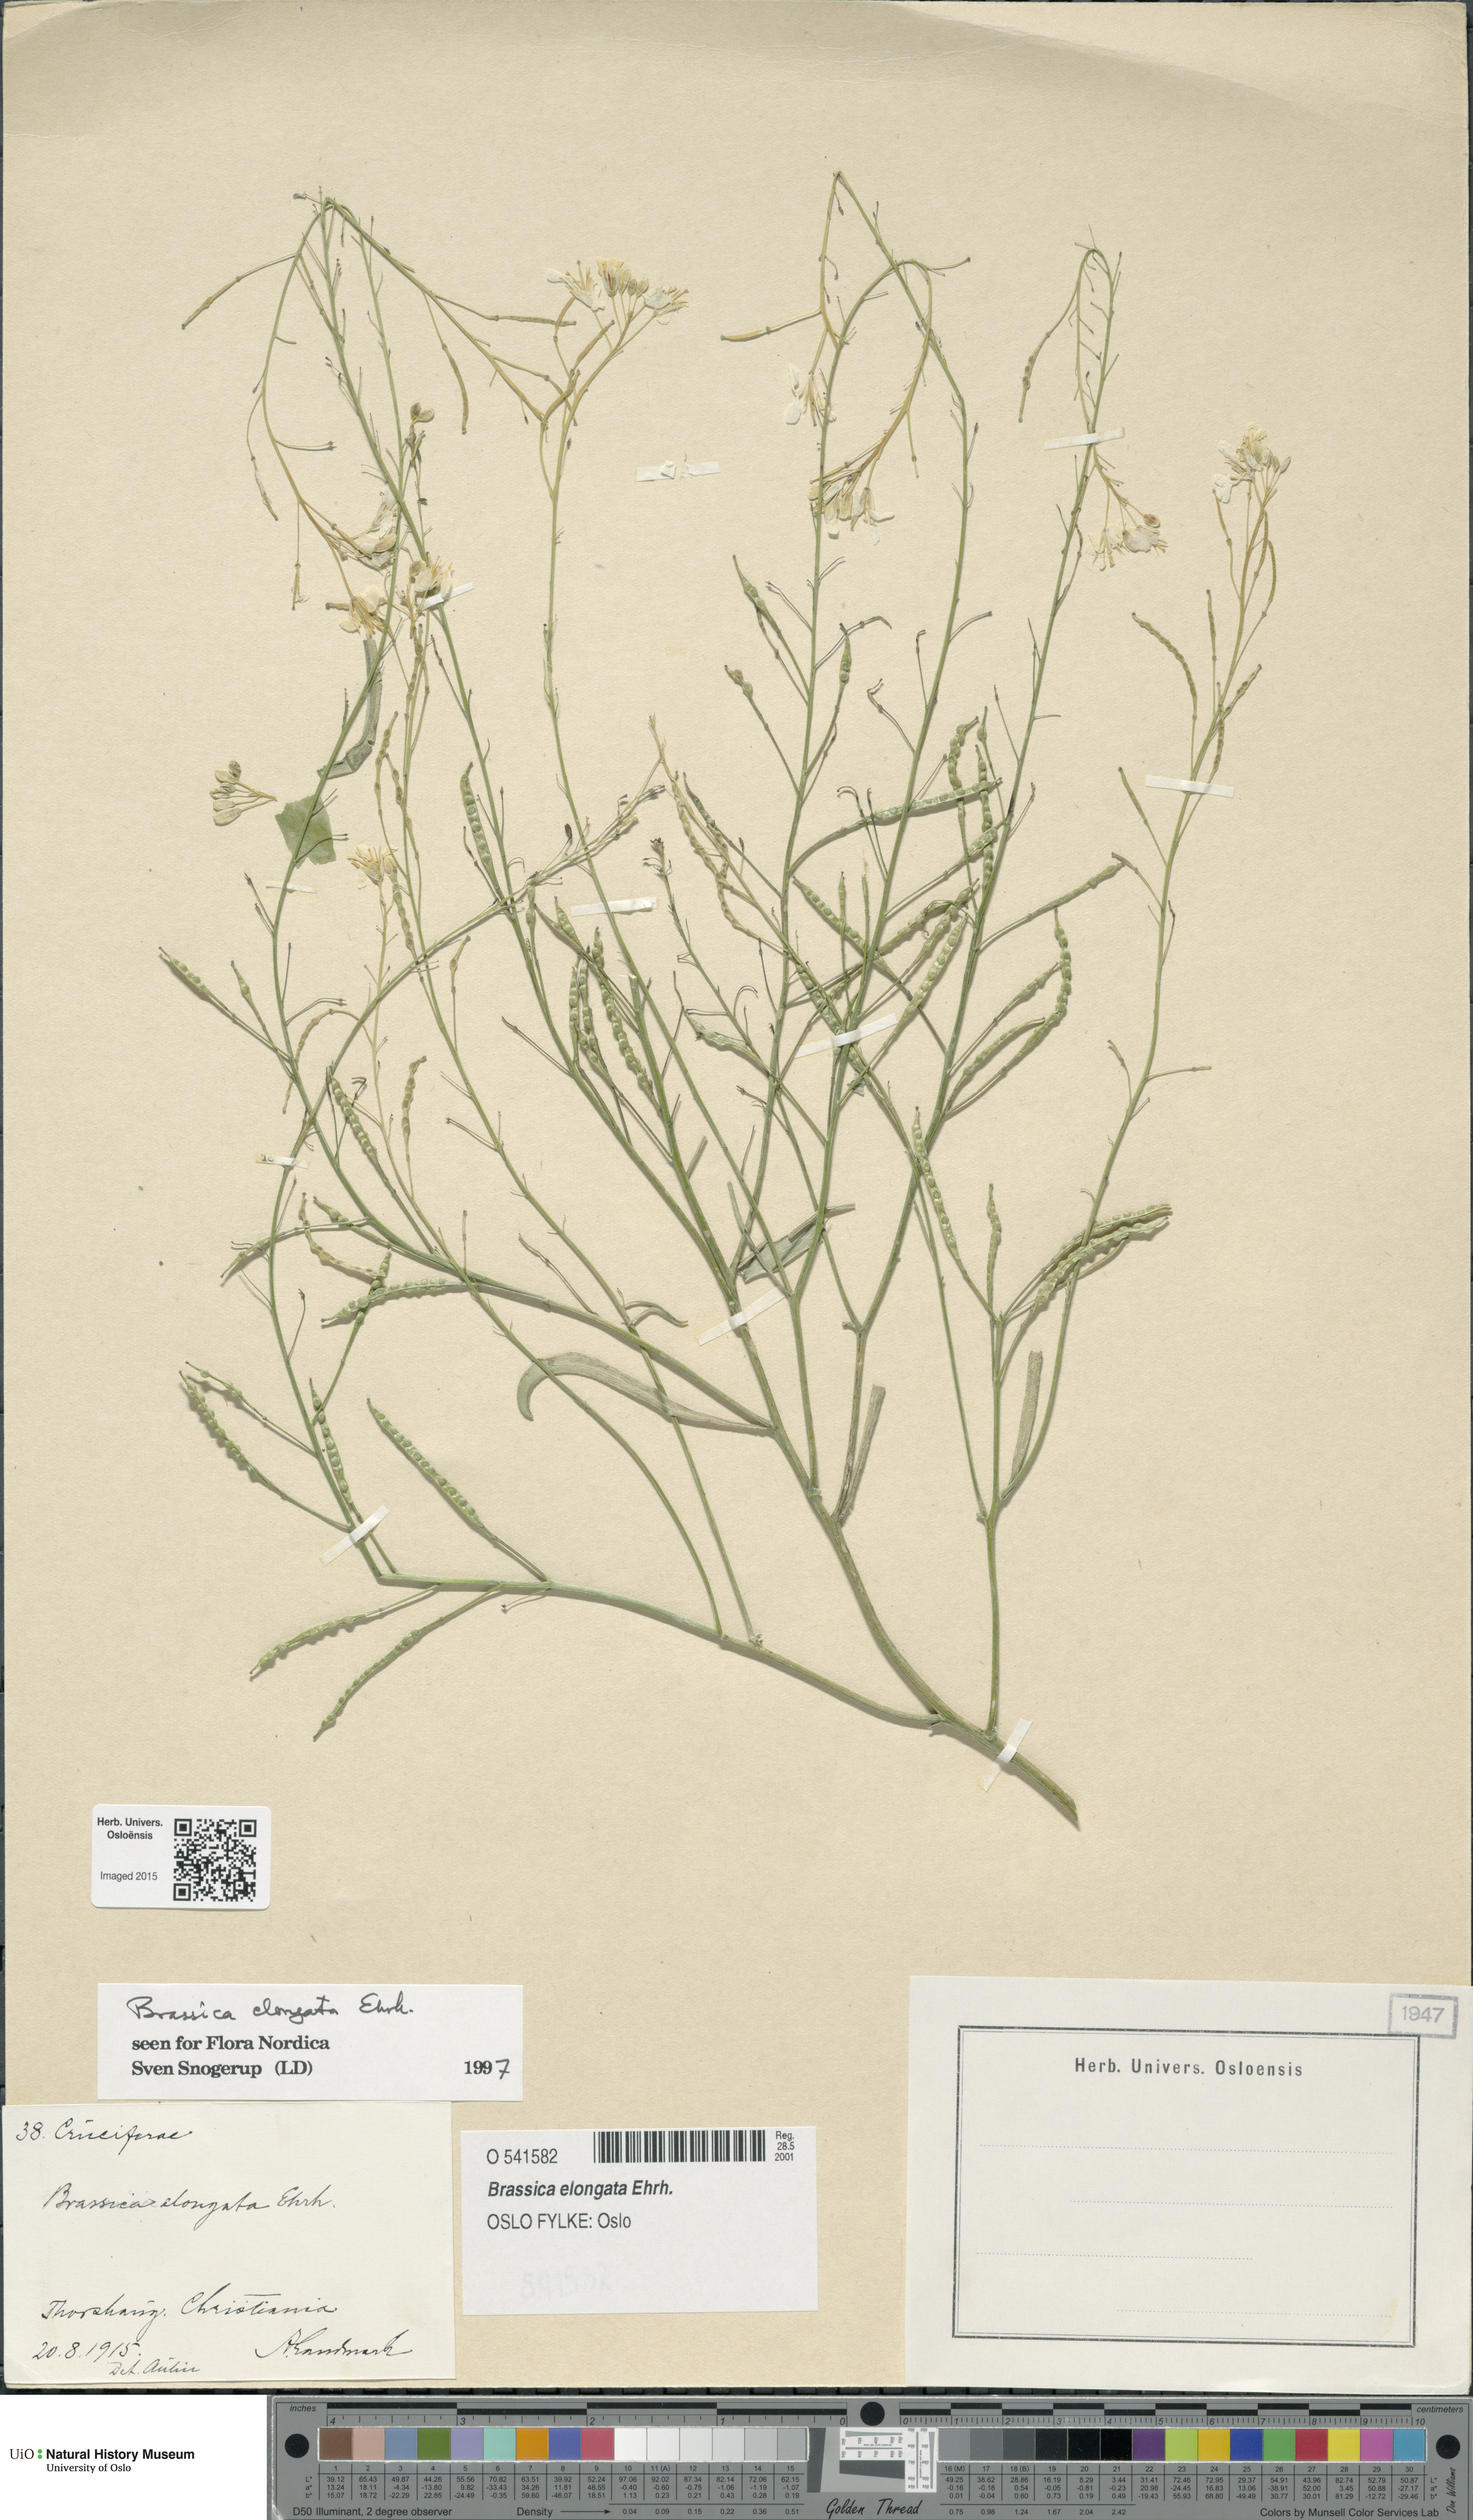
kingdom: Plantae
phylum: Tracheophyta
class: Magnoliopsida
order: Brassicales
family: Brassicaceae
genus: Brassica
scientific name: Brassica elongata
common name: Long-stalked rape
